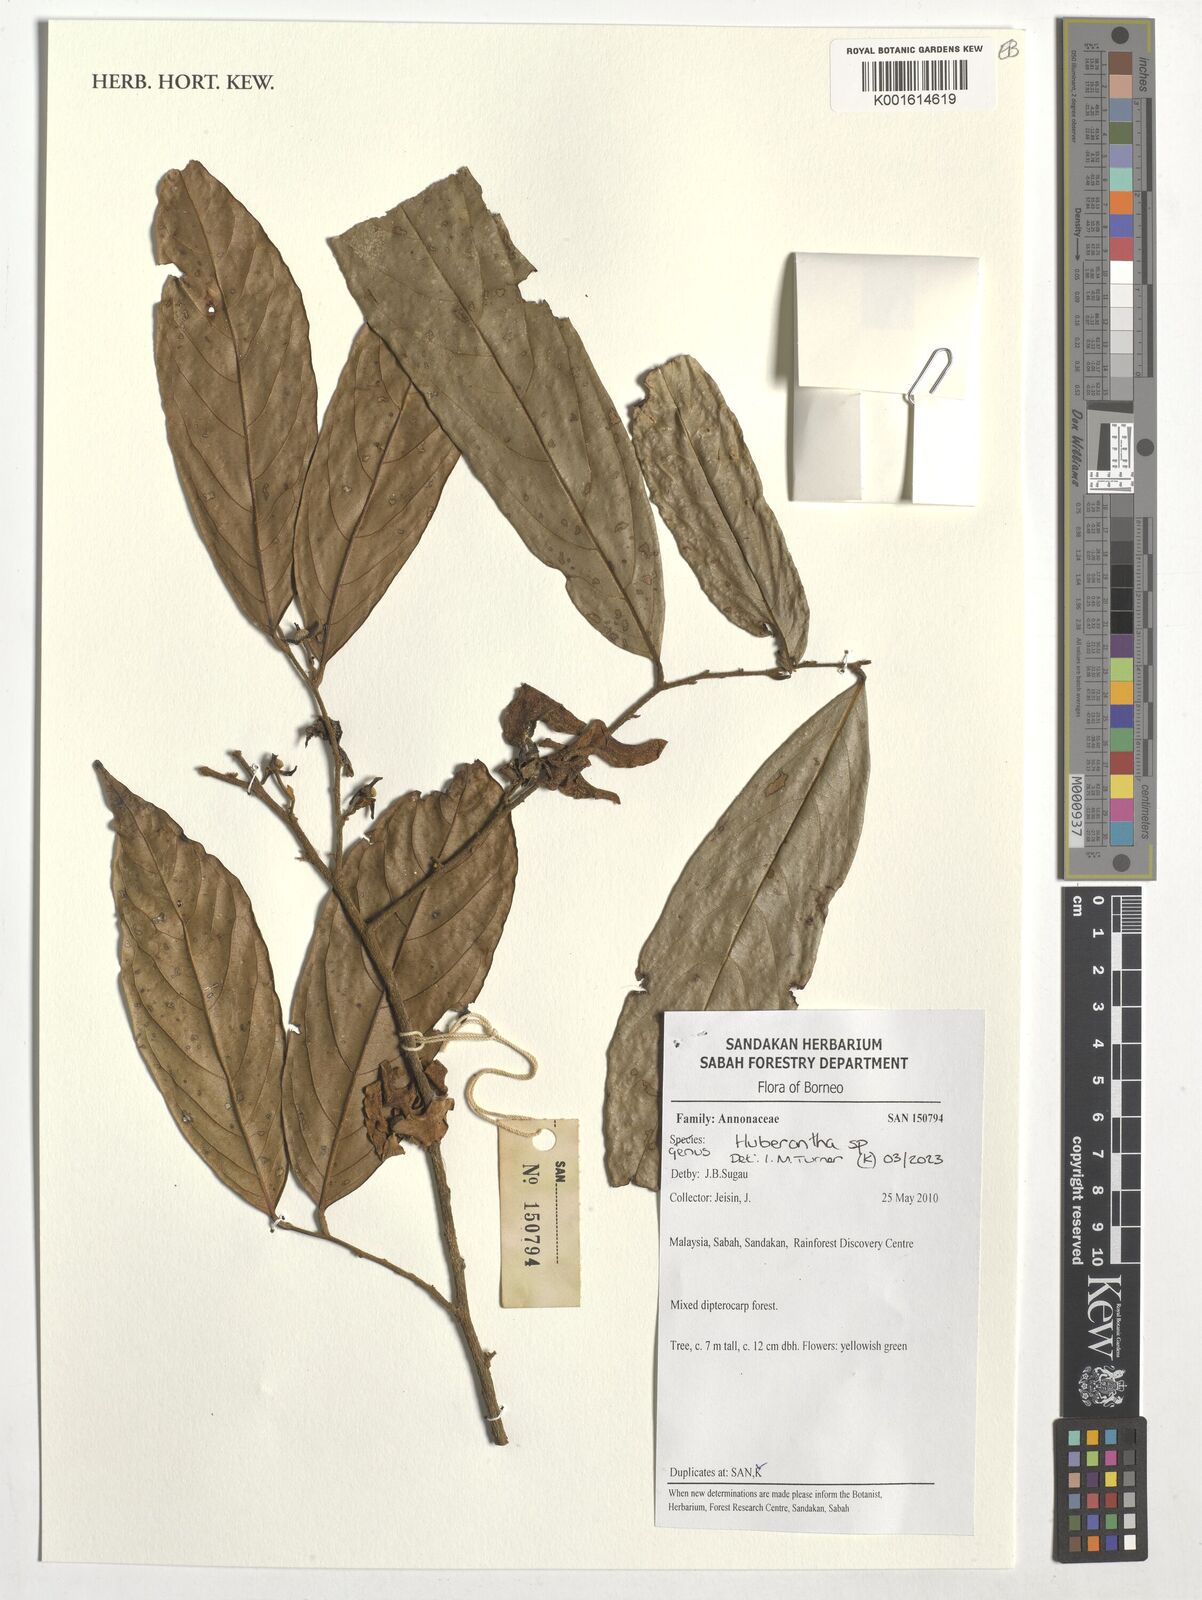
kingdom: Plantae
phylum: Tracheophyta
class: Magnoliopsida
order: Magnoliales
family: Annonaceae
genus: Huberantha
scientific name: Huberantha
